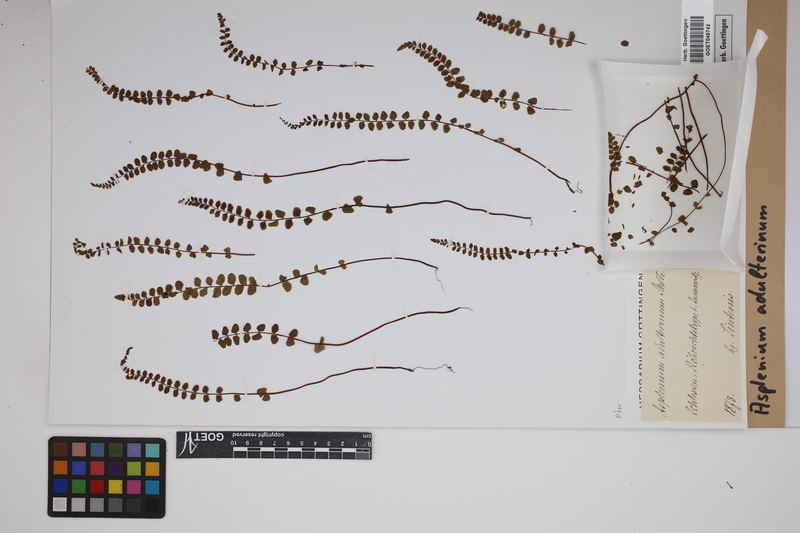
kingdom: Plantae
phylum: Tracheophyta
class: Polypodiopsida
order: Polypodiales
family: Aspleniaceae
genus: Asplenium
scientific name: Asplenium adulterinum
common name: Adulterated spleenwort
